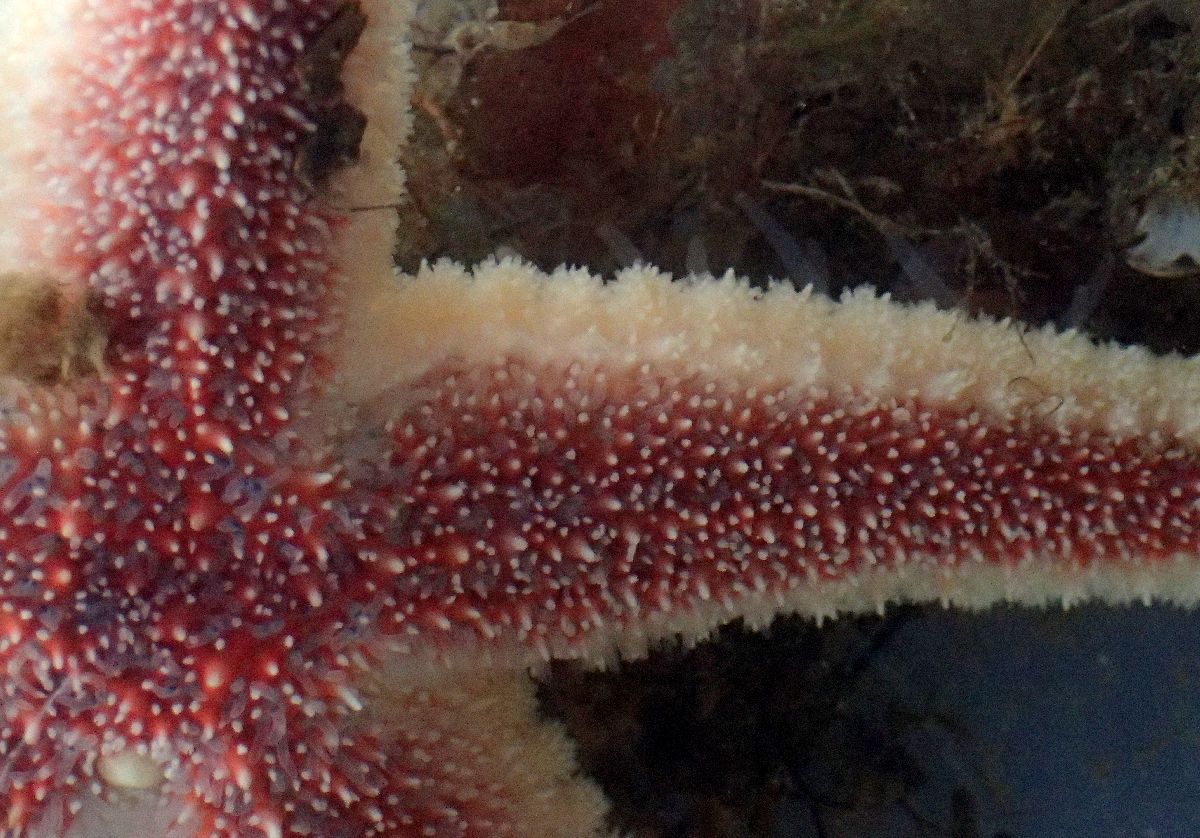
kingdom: Animalia
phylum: Echinodermata
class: Asteroidea
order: Forcipulatida
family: Asteriidae
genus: Urasterias
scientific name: Urasterias lincki
